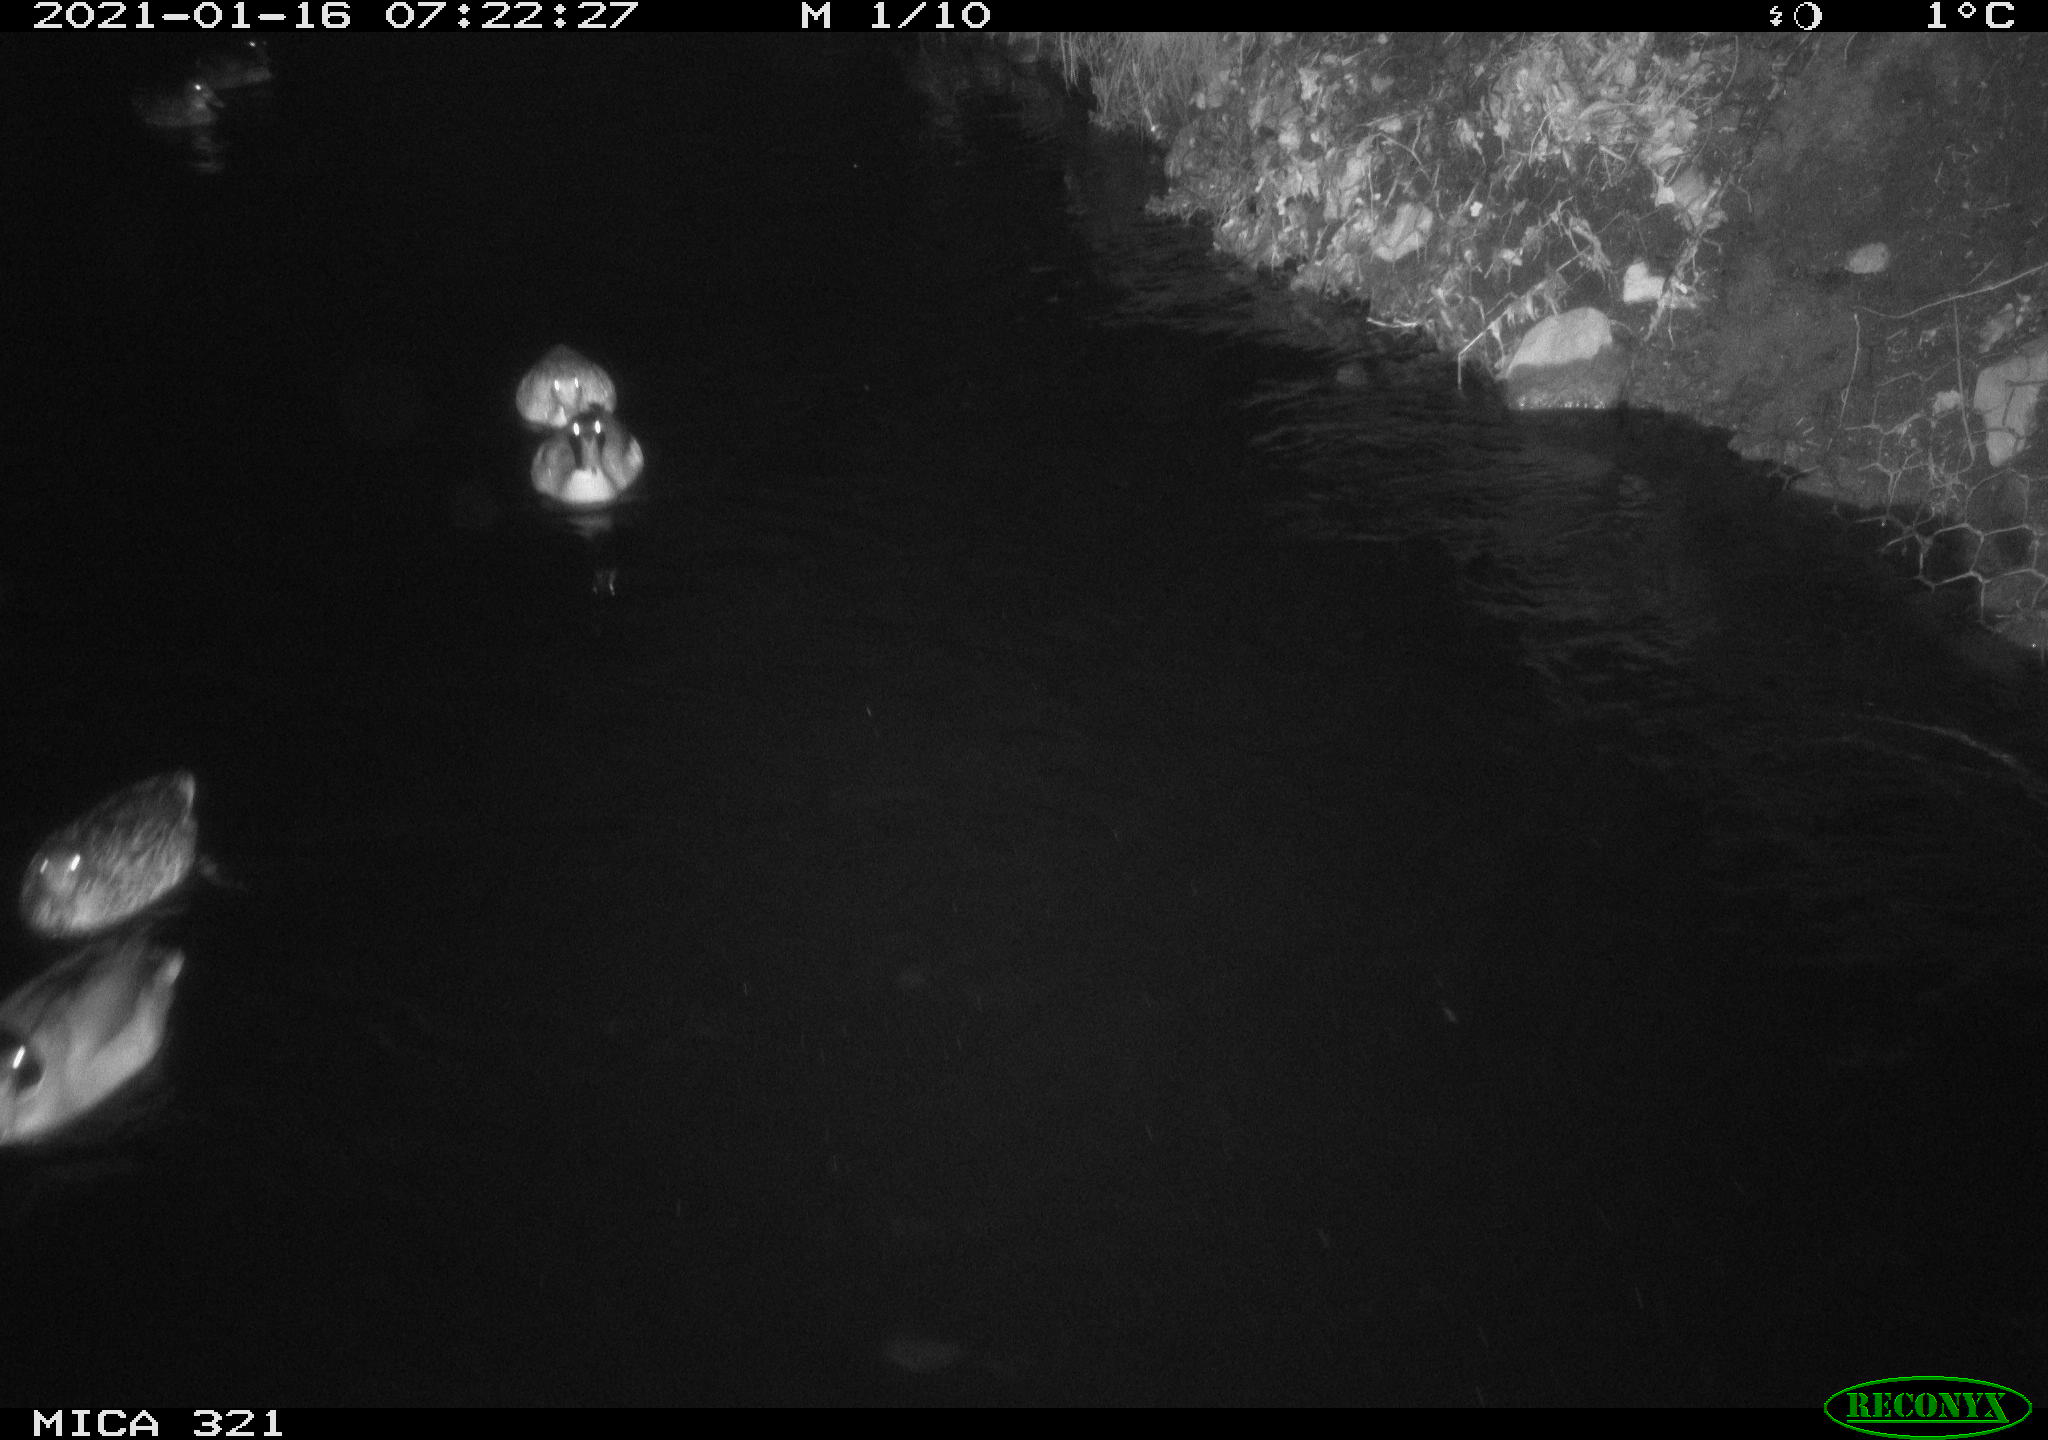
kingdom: Animalia
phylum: Chordata
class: Aves
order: Anseriformes
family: Anatidae
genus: Anas
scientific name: Anas platyrhynchos
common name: Mallard
